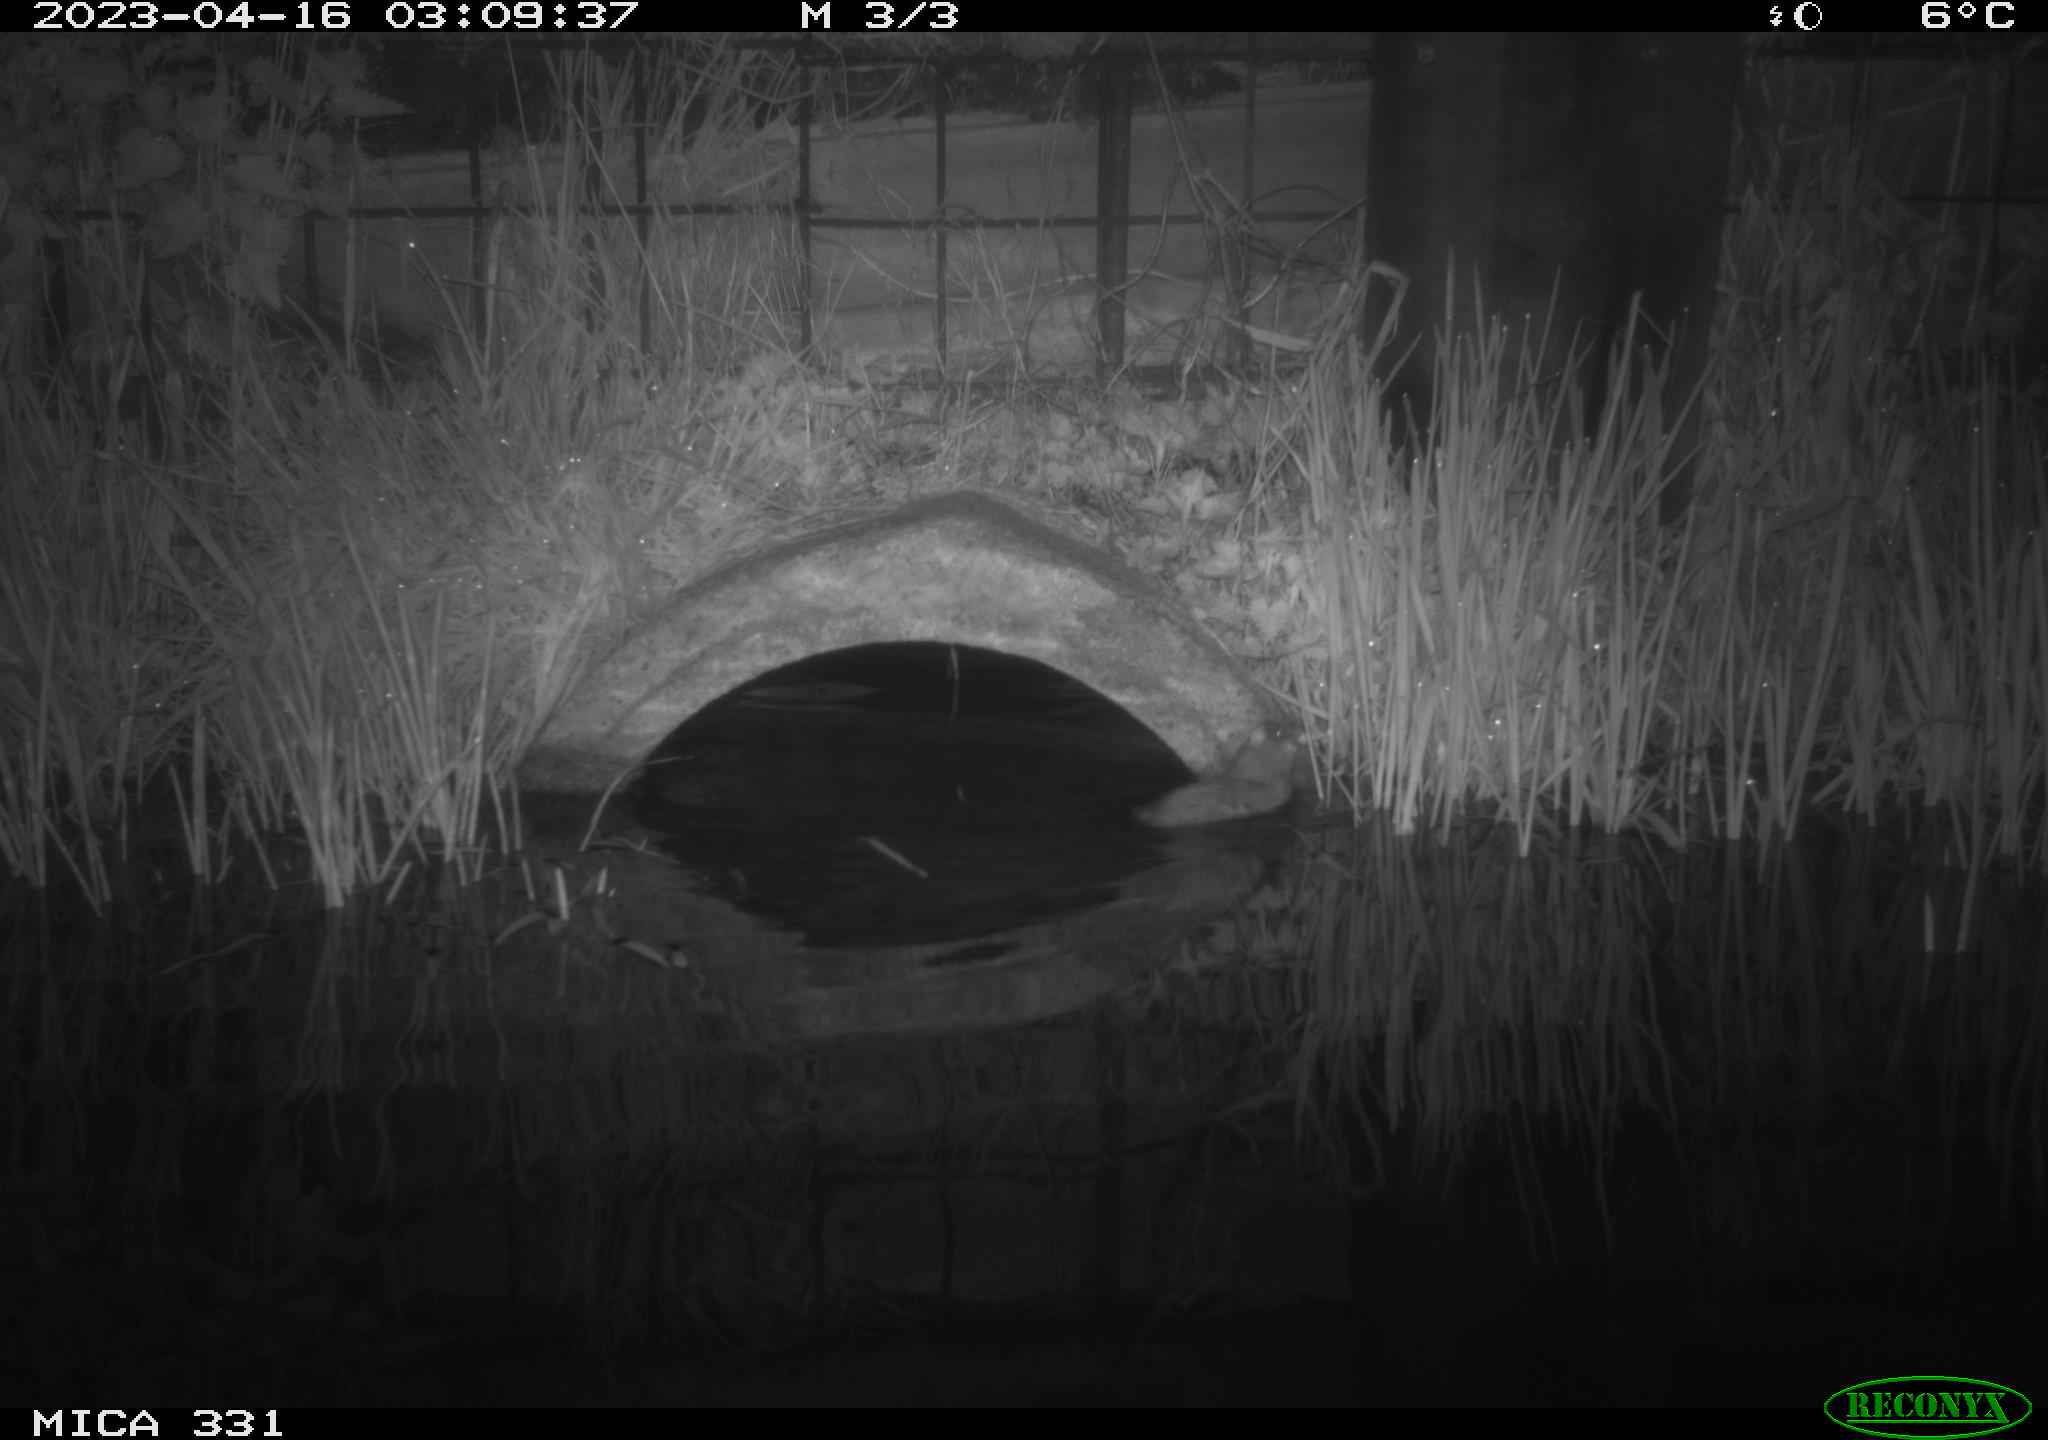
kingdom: Animalia
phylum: Chordata
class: Mammalia
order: Rodentia
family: Muridae
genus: Rattus
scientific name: Rattus norvegicus
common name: Brown rat
